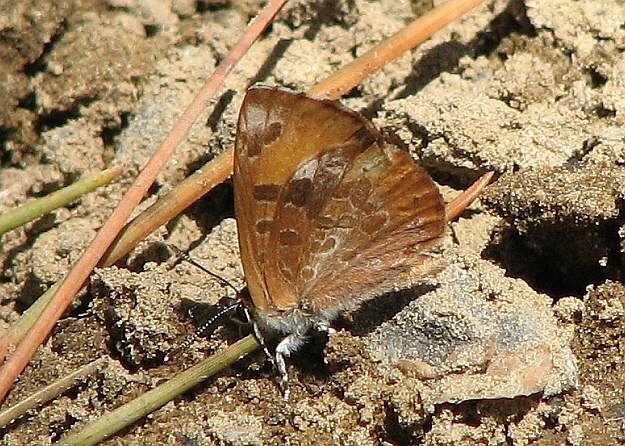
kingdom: Animalia
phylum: Arthropoda
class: Insecta
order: Lepidoptera
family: Lycaenidae
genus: Feniseca
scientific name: Feniseca tarquinius
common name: Harvester
